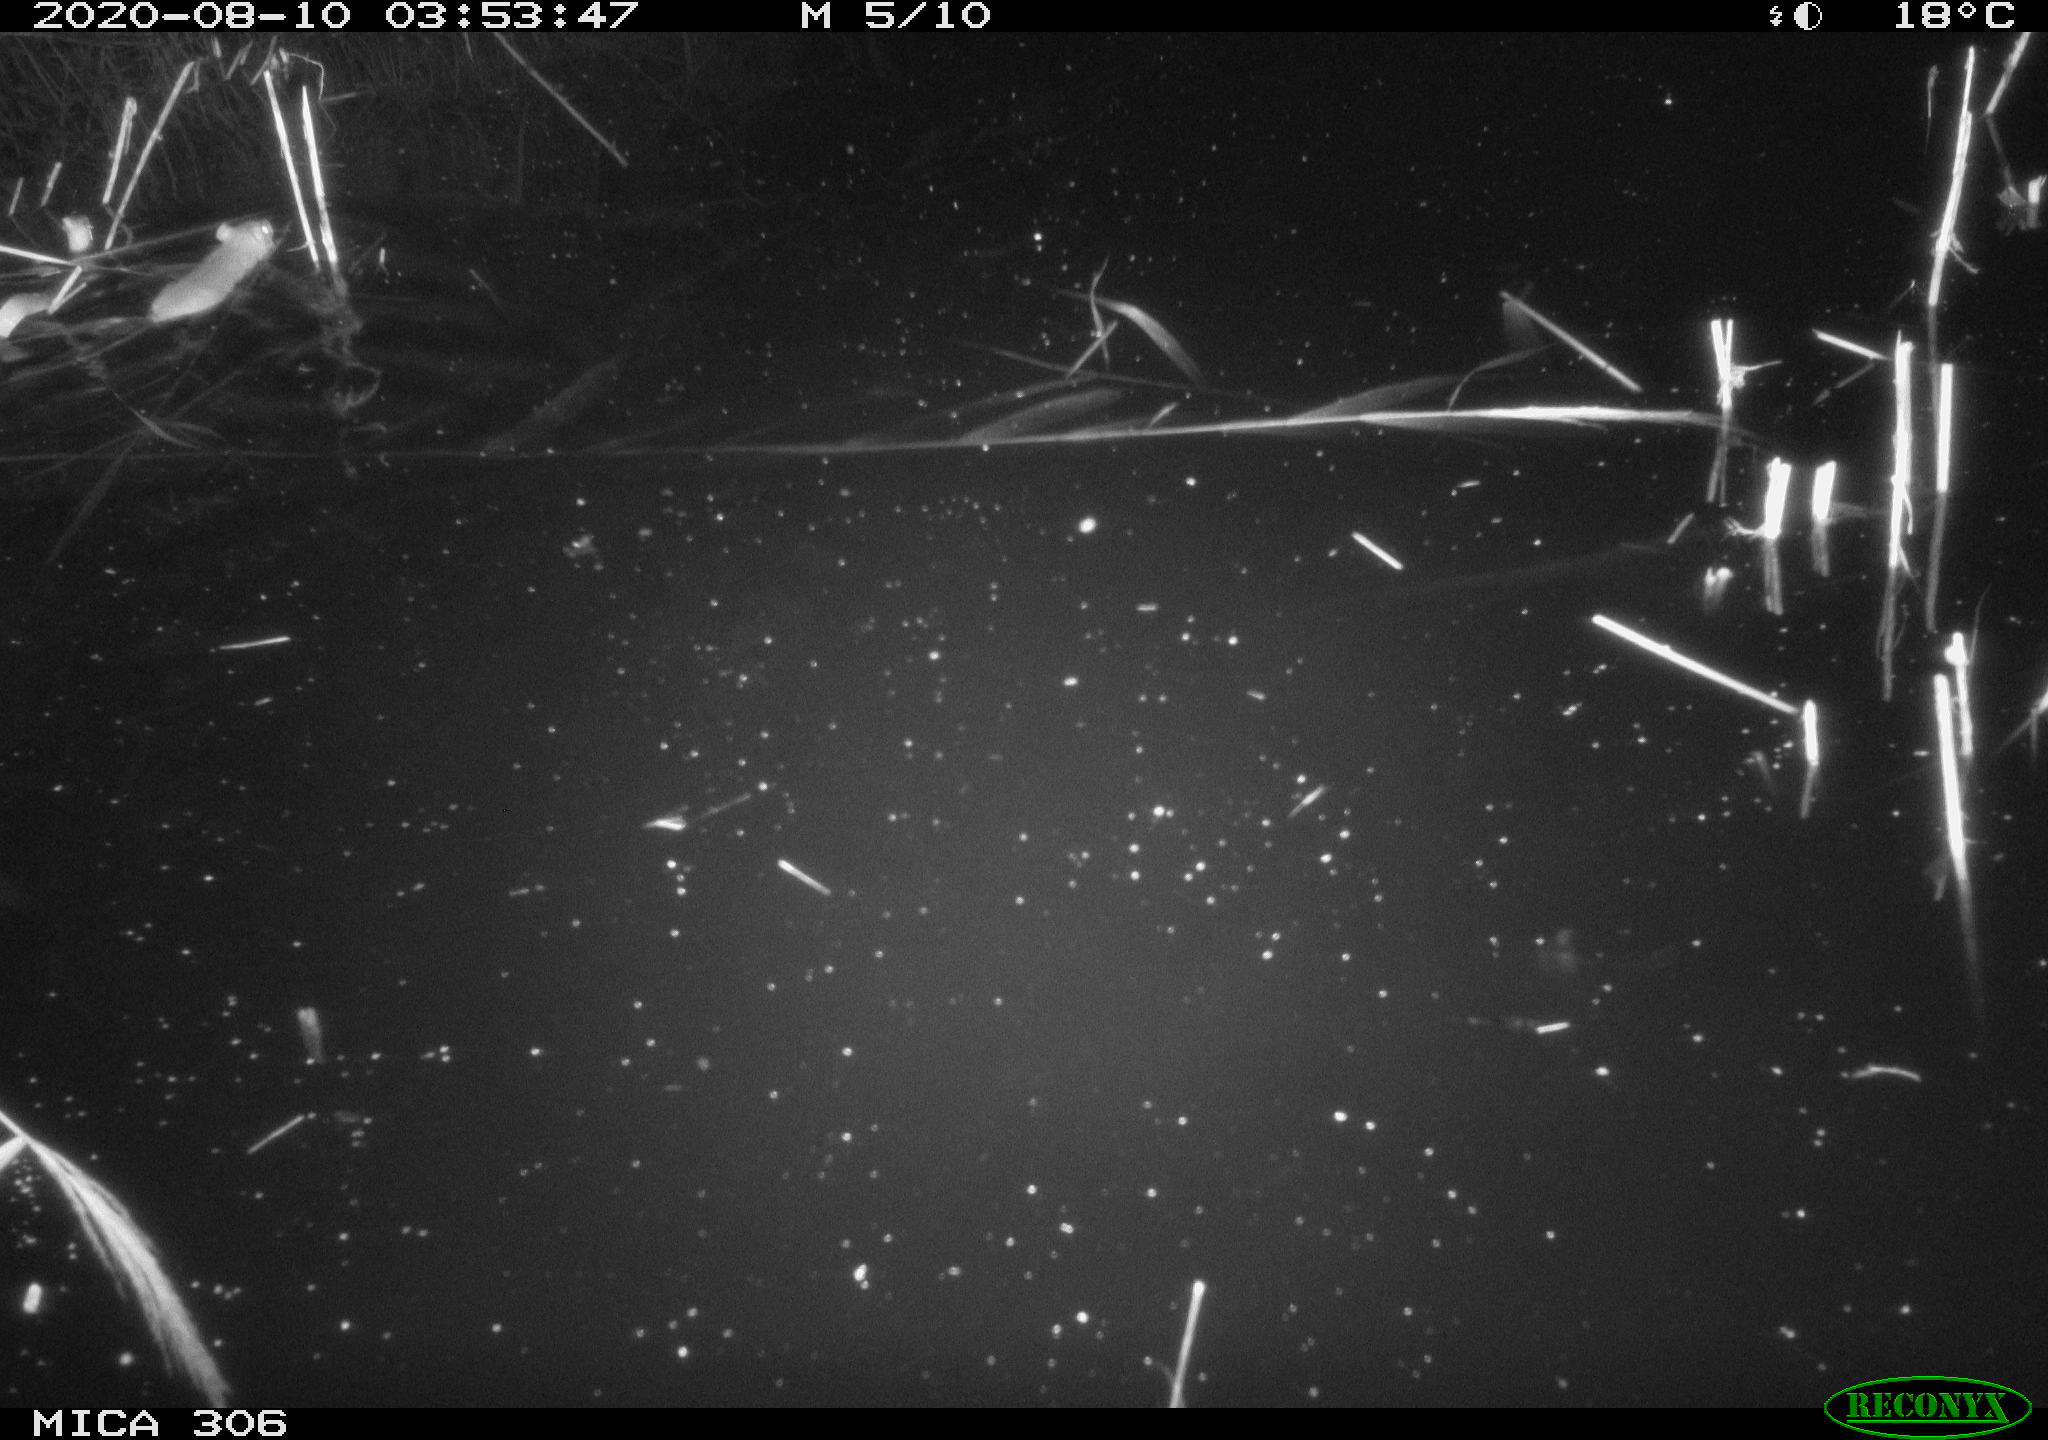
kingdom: Animalia
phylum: Chordata
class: Mammalia
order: Rodentia
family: Muridae
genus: Rattus
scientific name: Rattus norvegicus
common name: Brown rat
